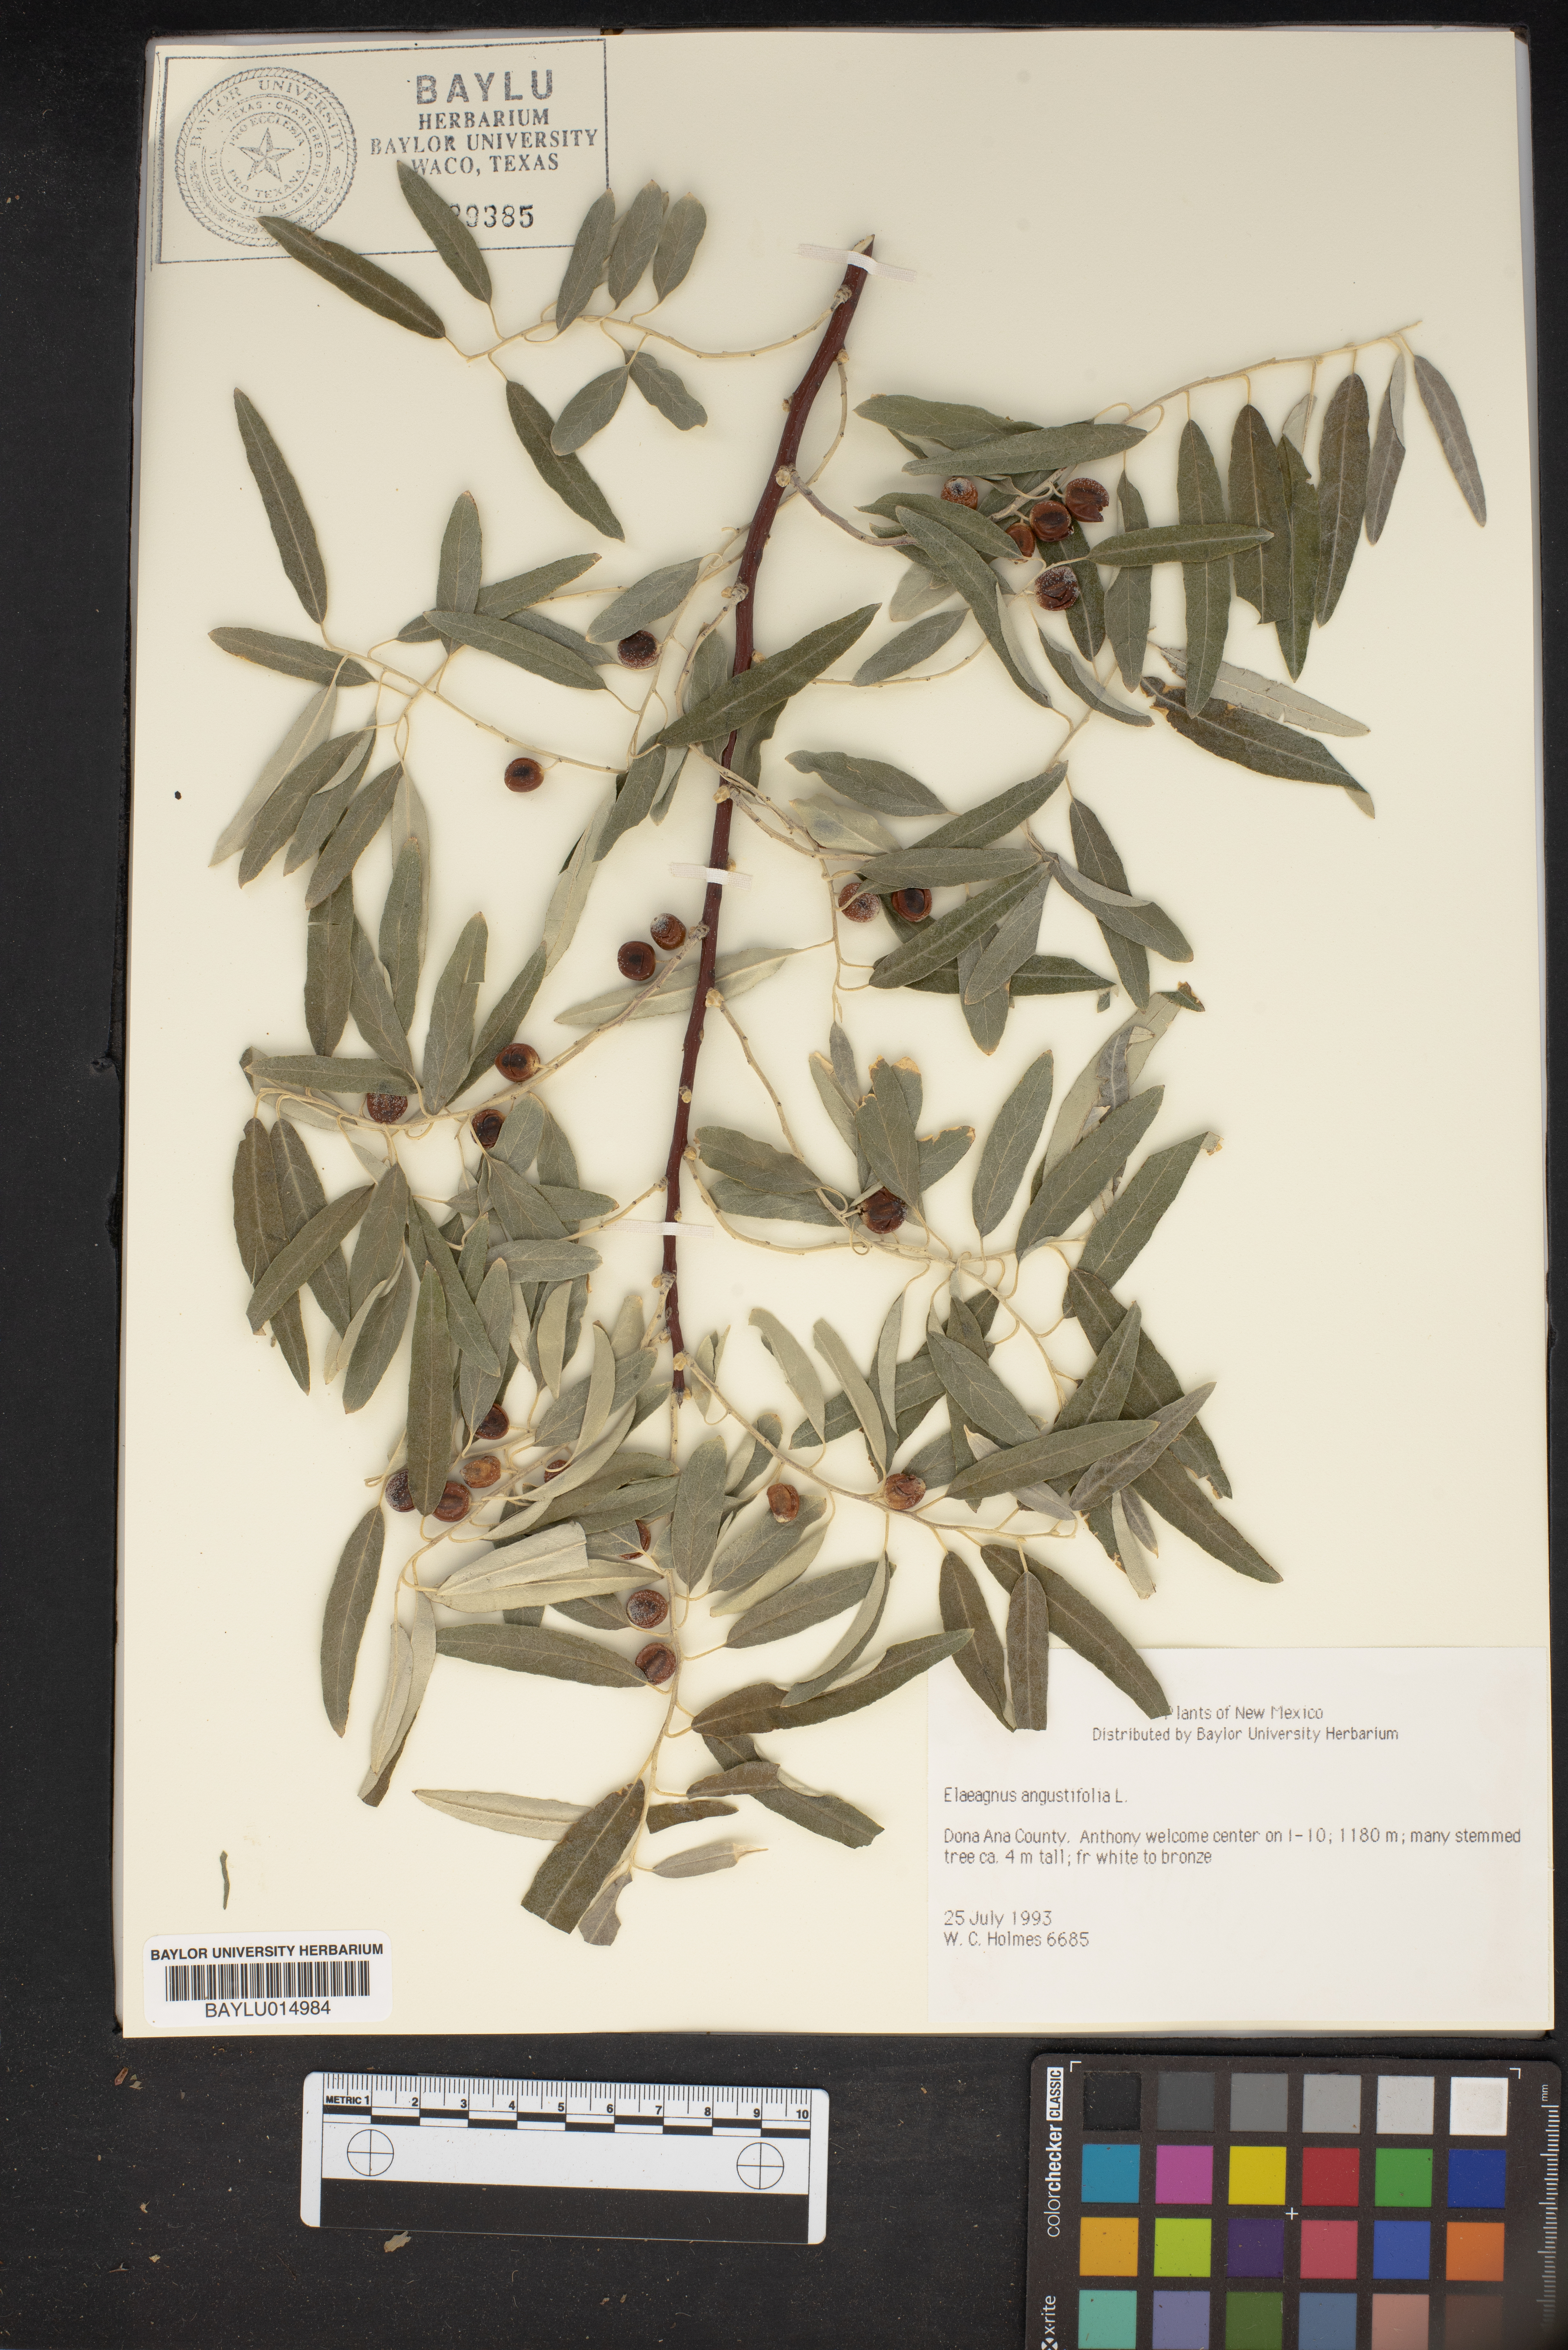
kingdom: Plantae
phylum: Tracheophyta
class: Magnoliopsida
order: Rosales
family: Elaeagnaceae
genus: Elaeagnus
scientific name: Elaeagnus angustifolia
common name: Russian olive
